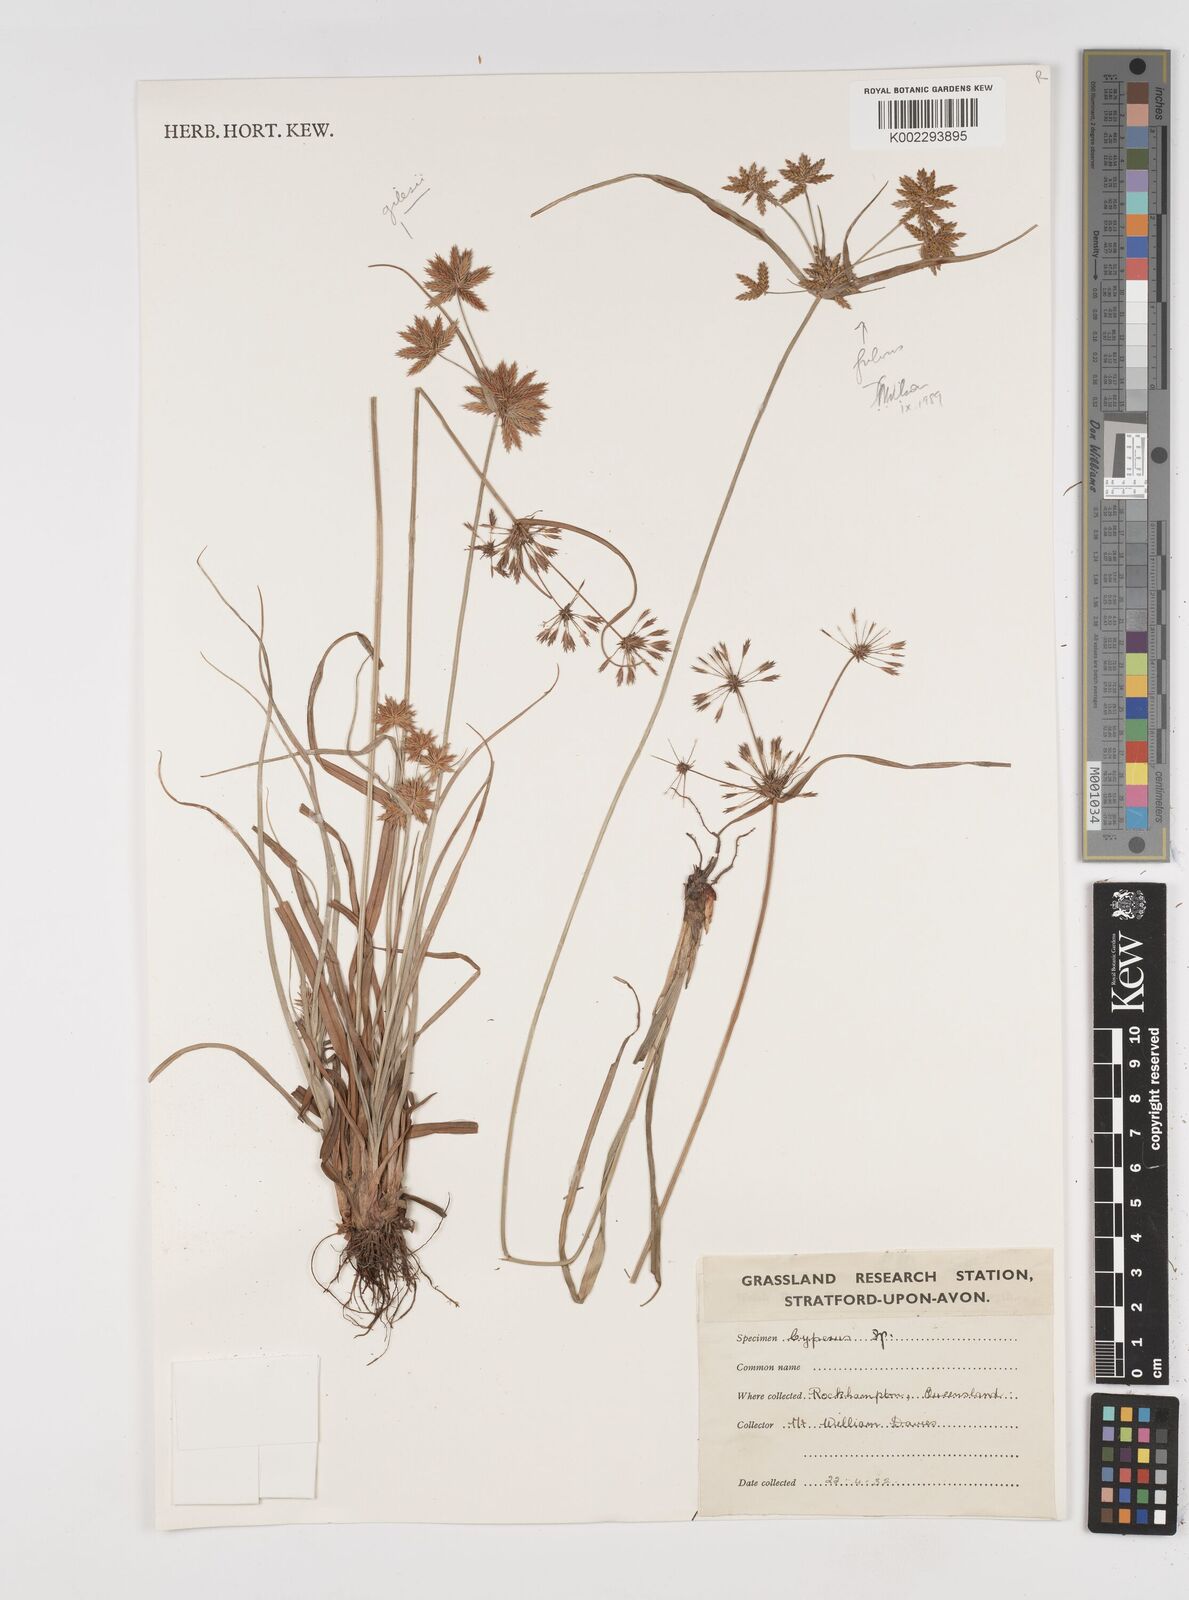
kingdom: Plantae
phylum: Tracheophyta
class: Liliopsida
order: Poales
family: Cyperaceae
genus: Cyperus
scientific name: Cyperus
